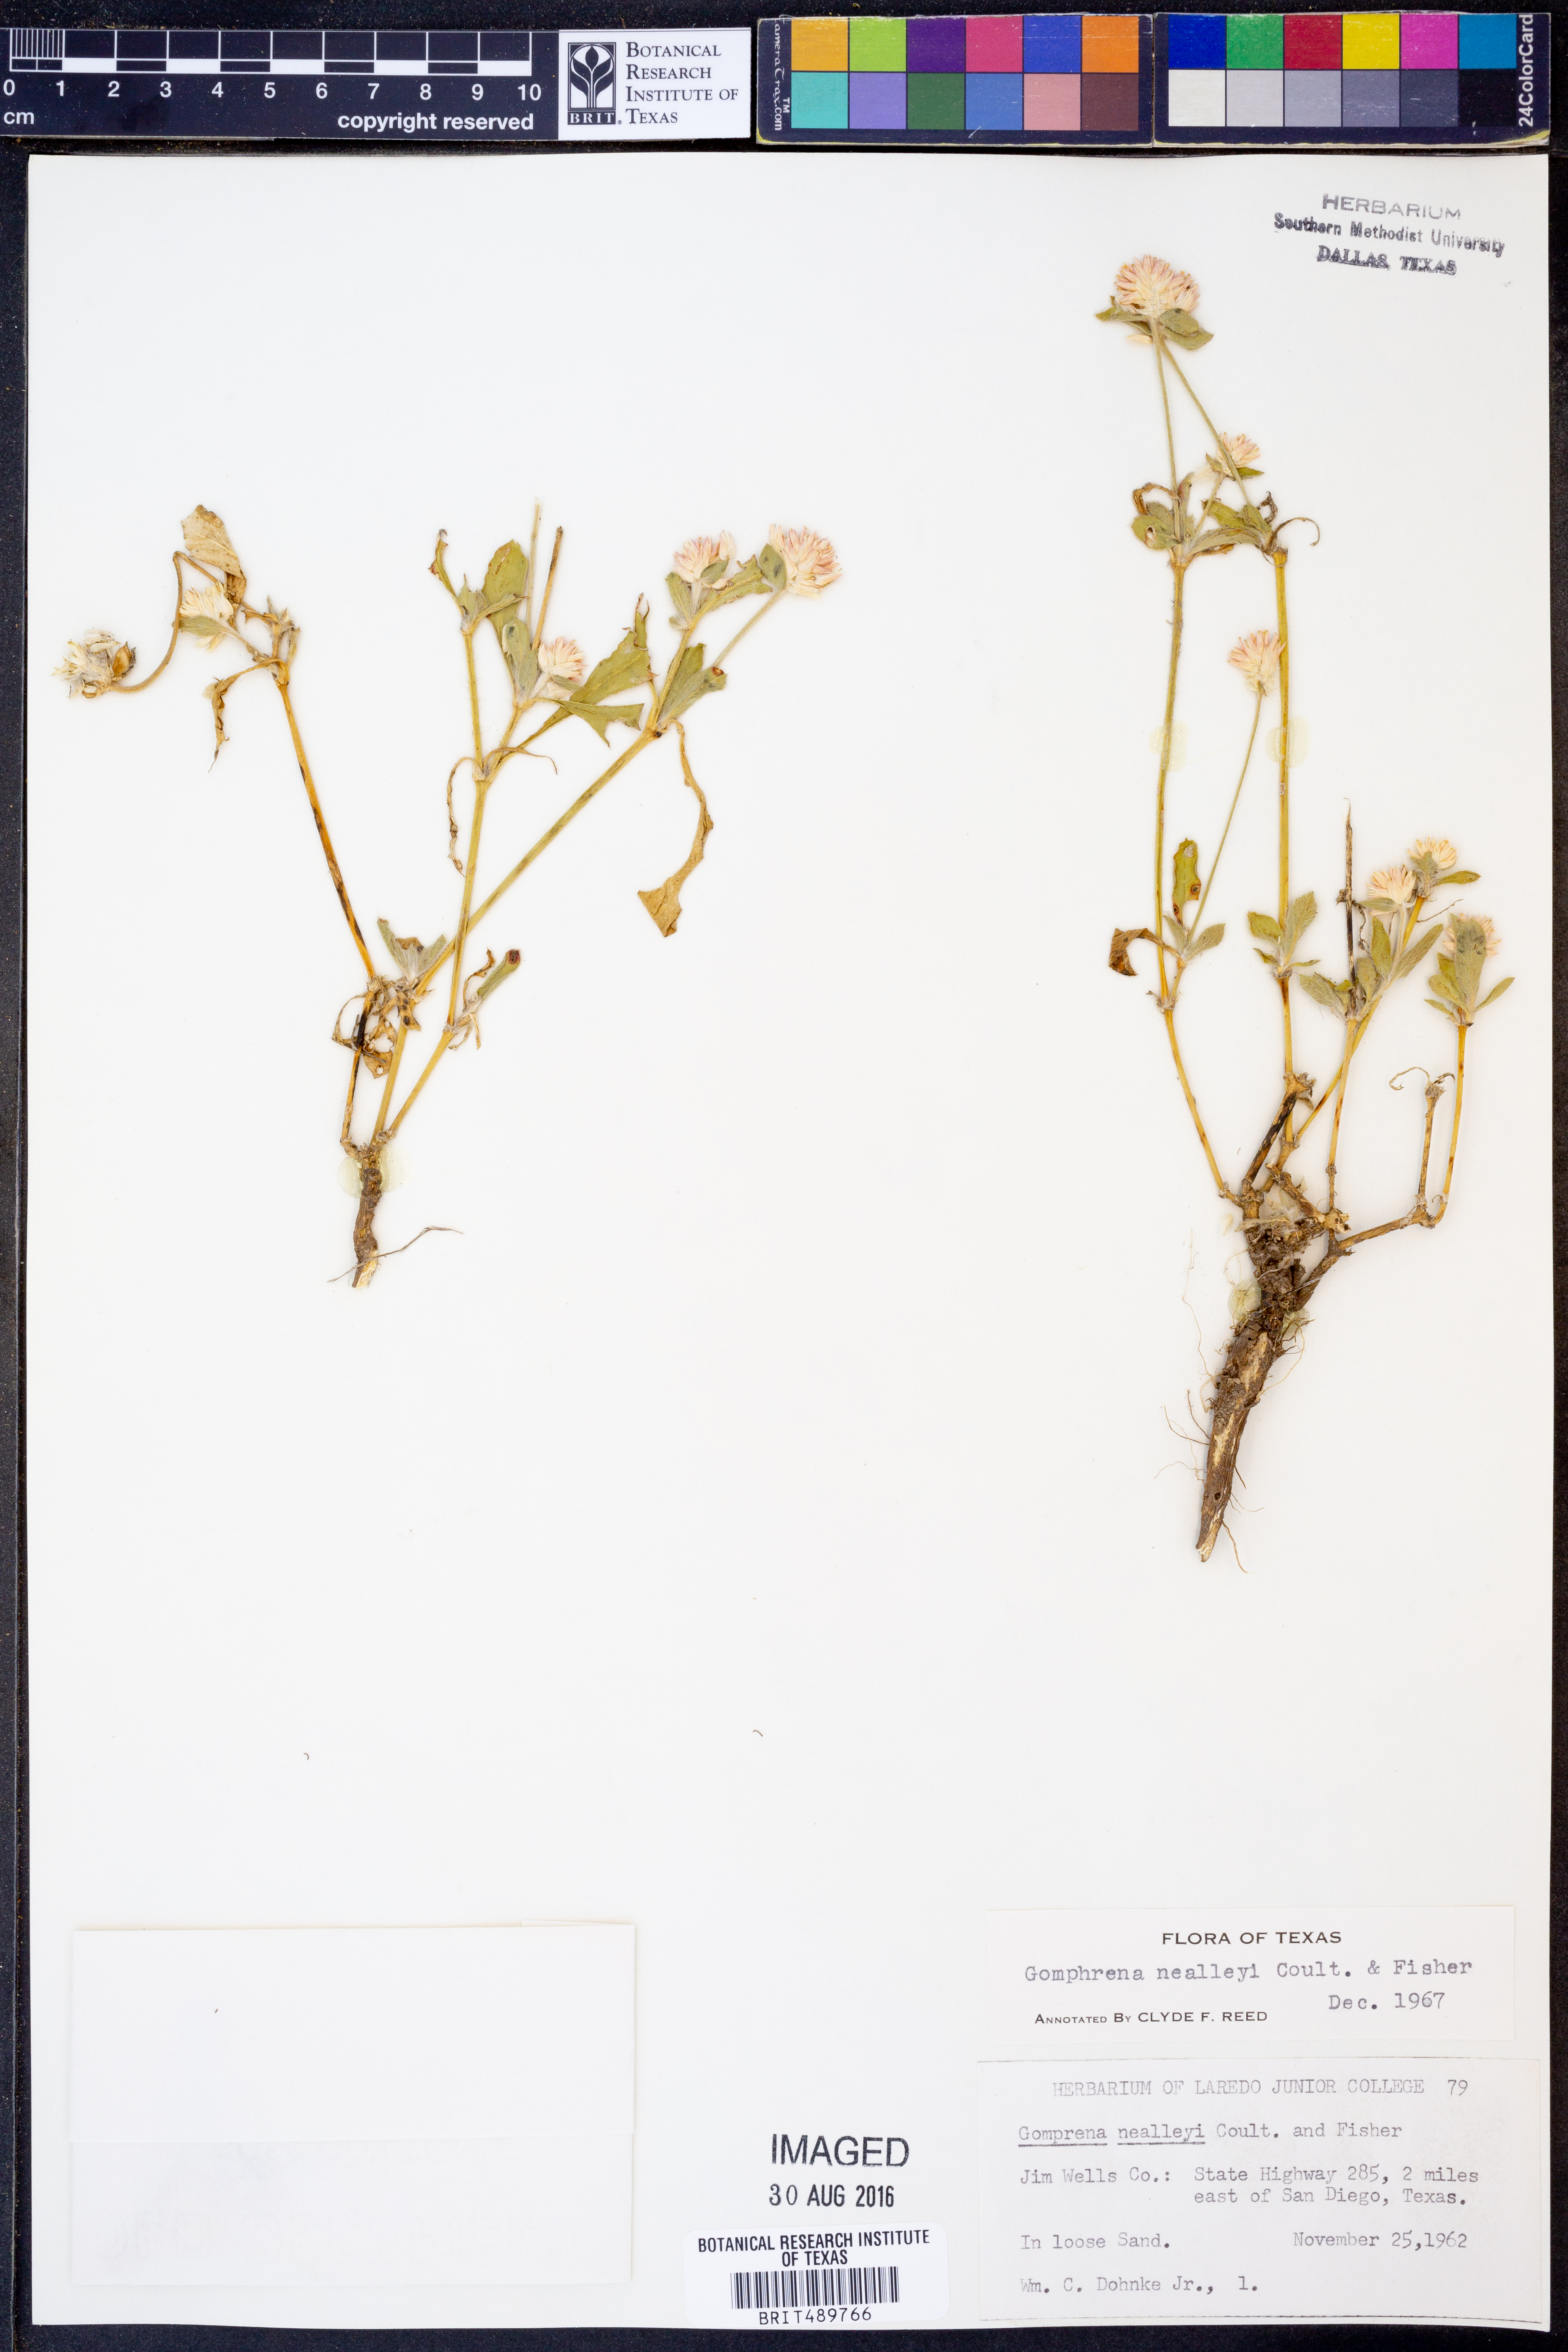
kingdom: Plantae
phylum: Tracheophyta
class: Magnoliopsida
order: Caryophyllales
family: Amaranthaceae
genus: Gomphrena
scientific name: Gomphrena nealleyi
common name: Nealley's globe-amaranth
